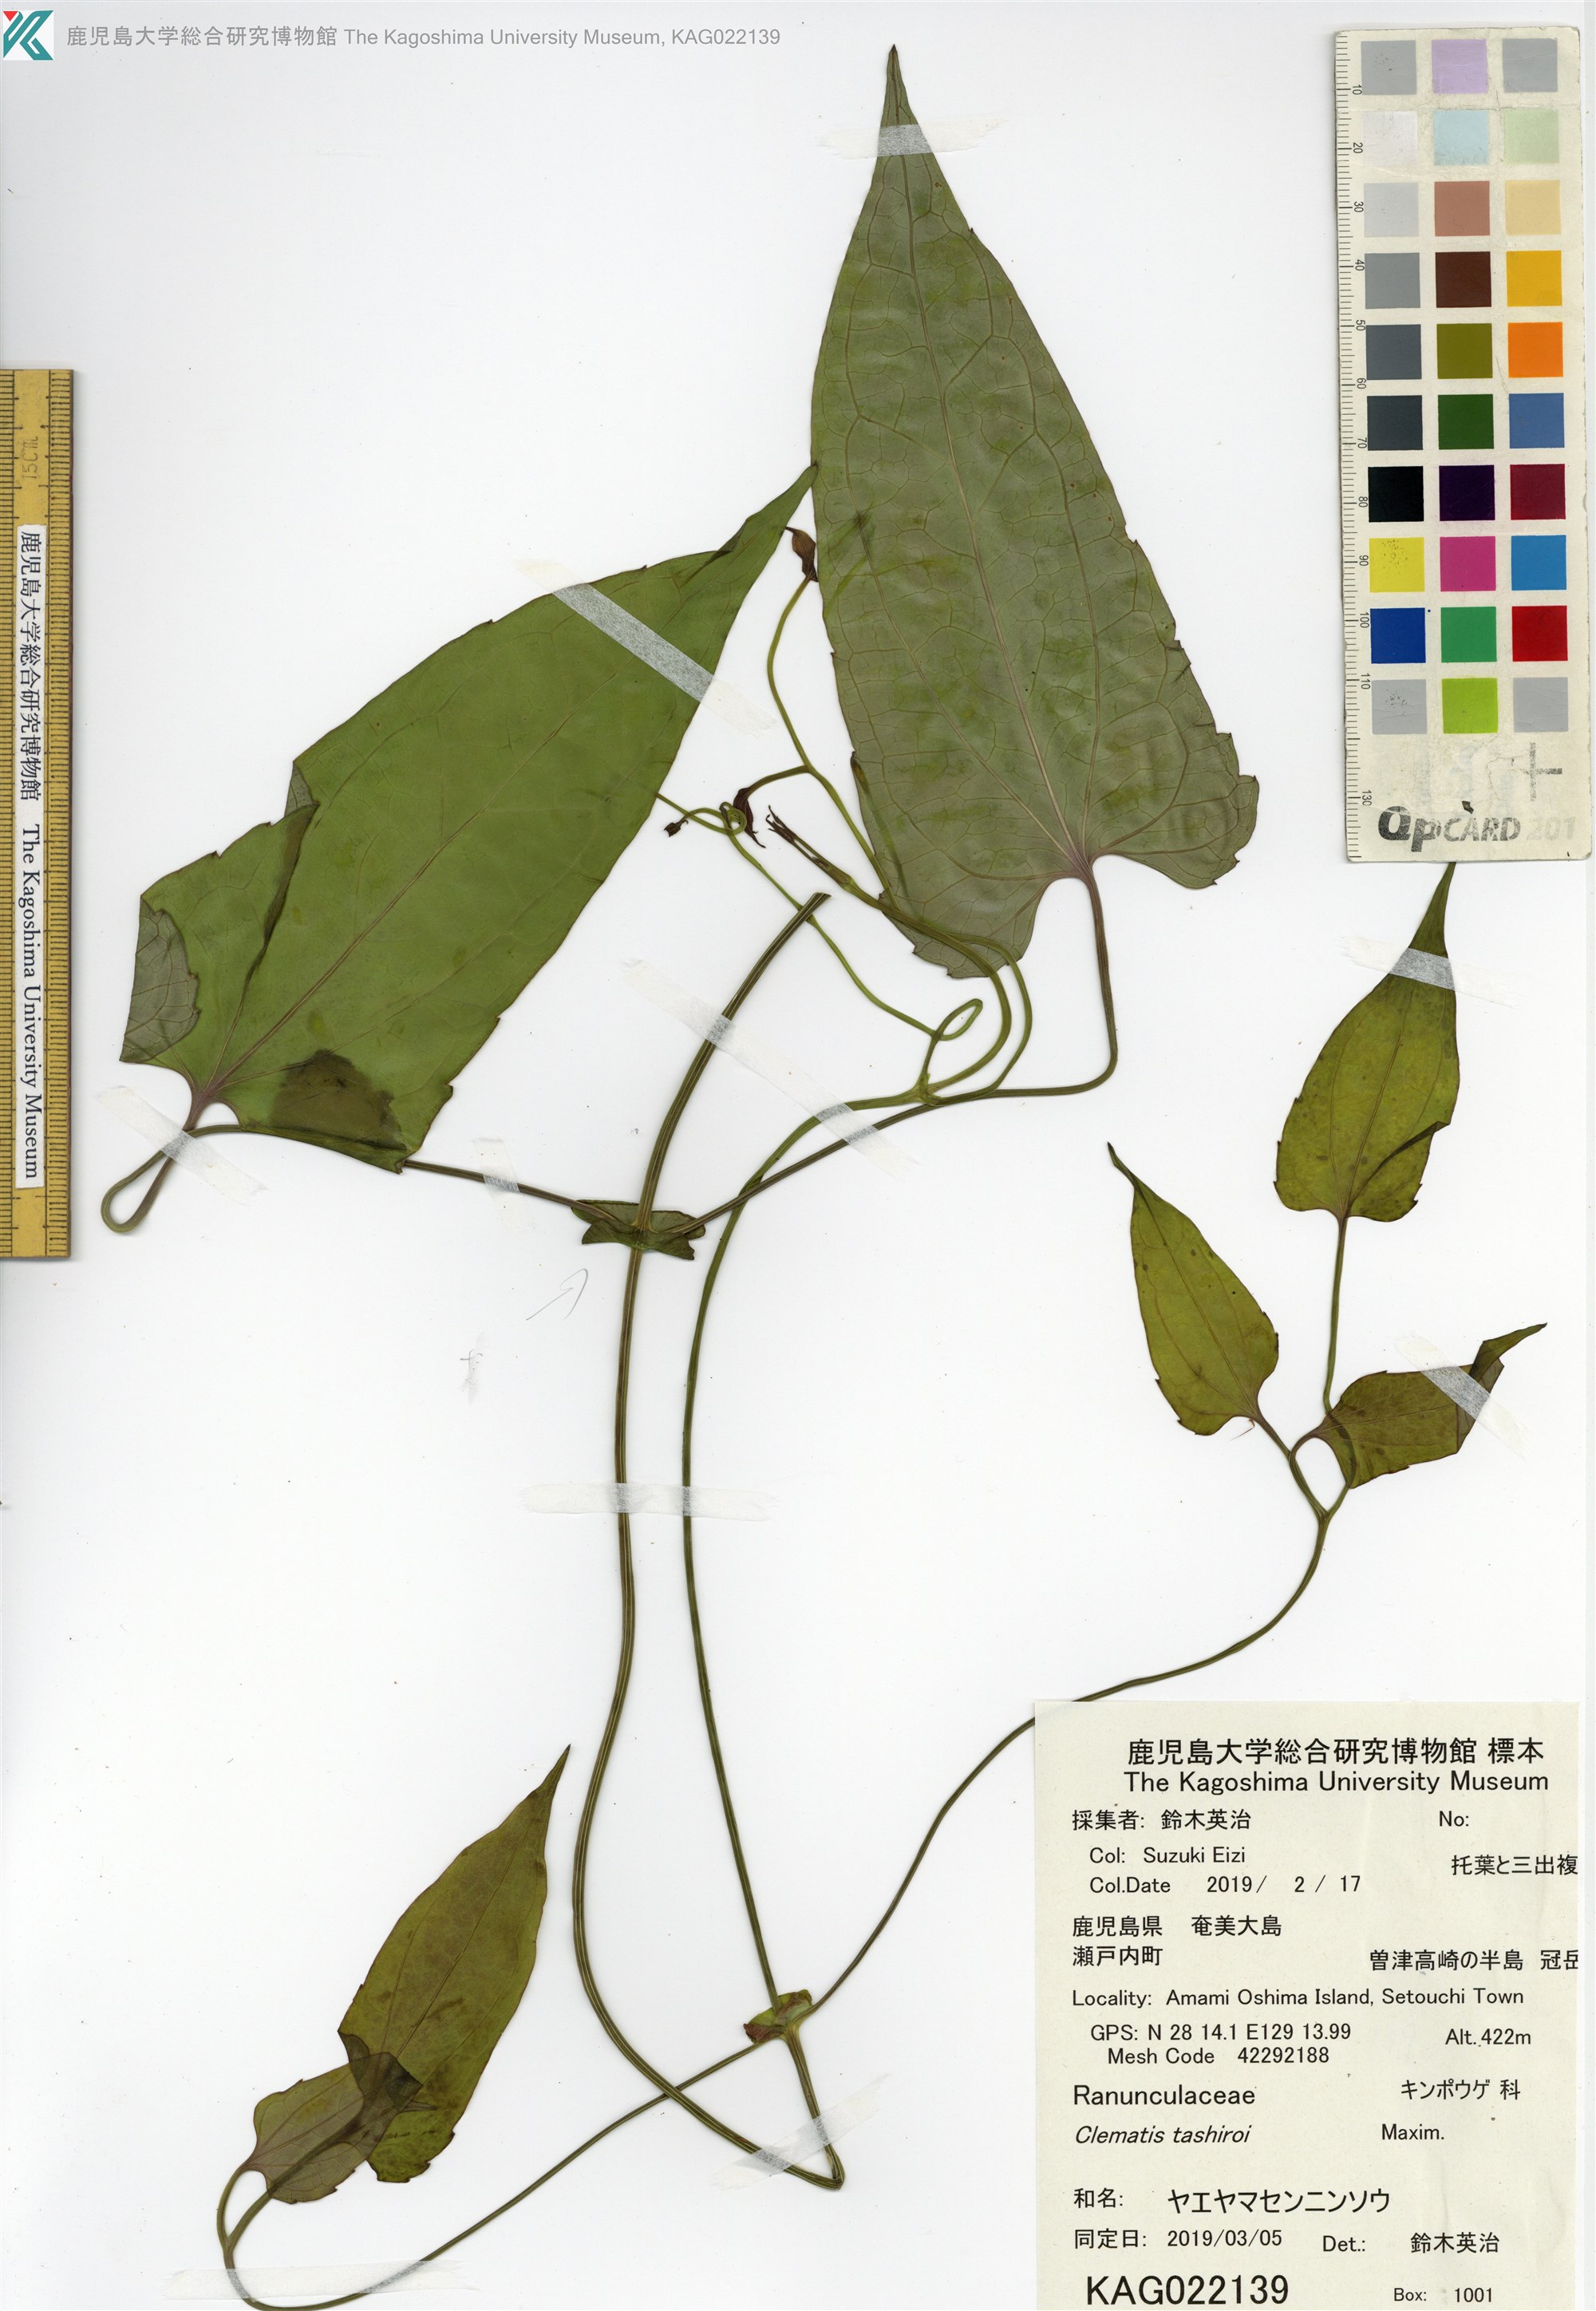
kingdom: Plantae
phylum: Tracheophyta
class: Magnoliopsida
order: Ranunculales
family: Ranunculaceae
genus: Clematis
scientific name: Clematis tashiroi
